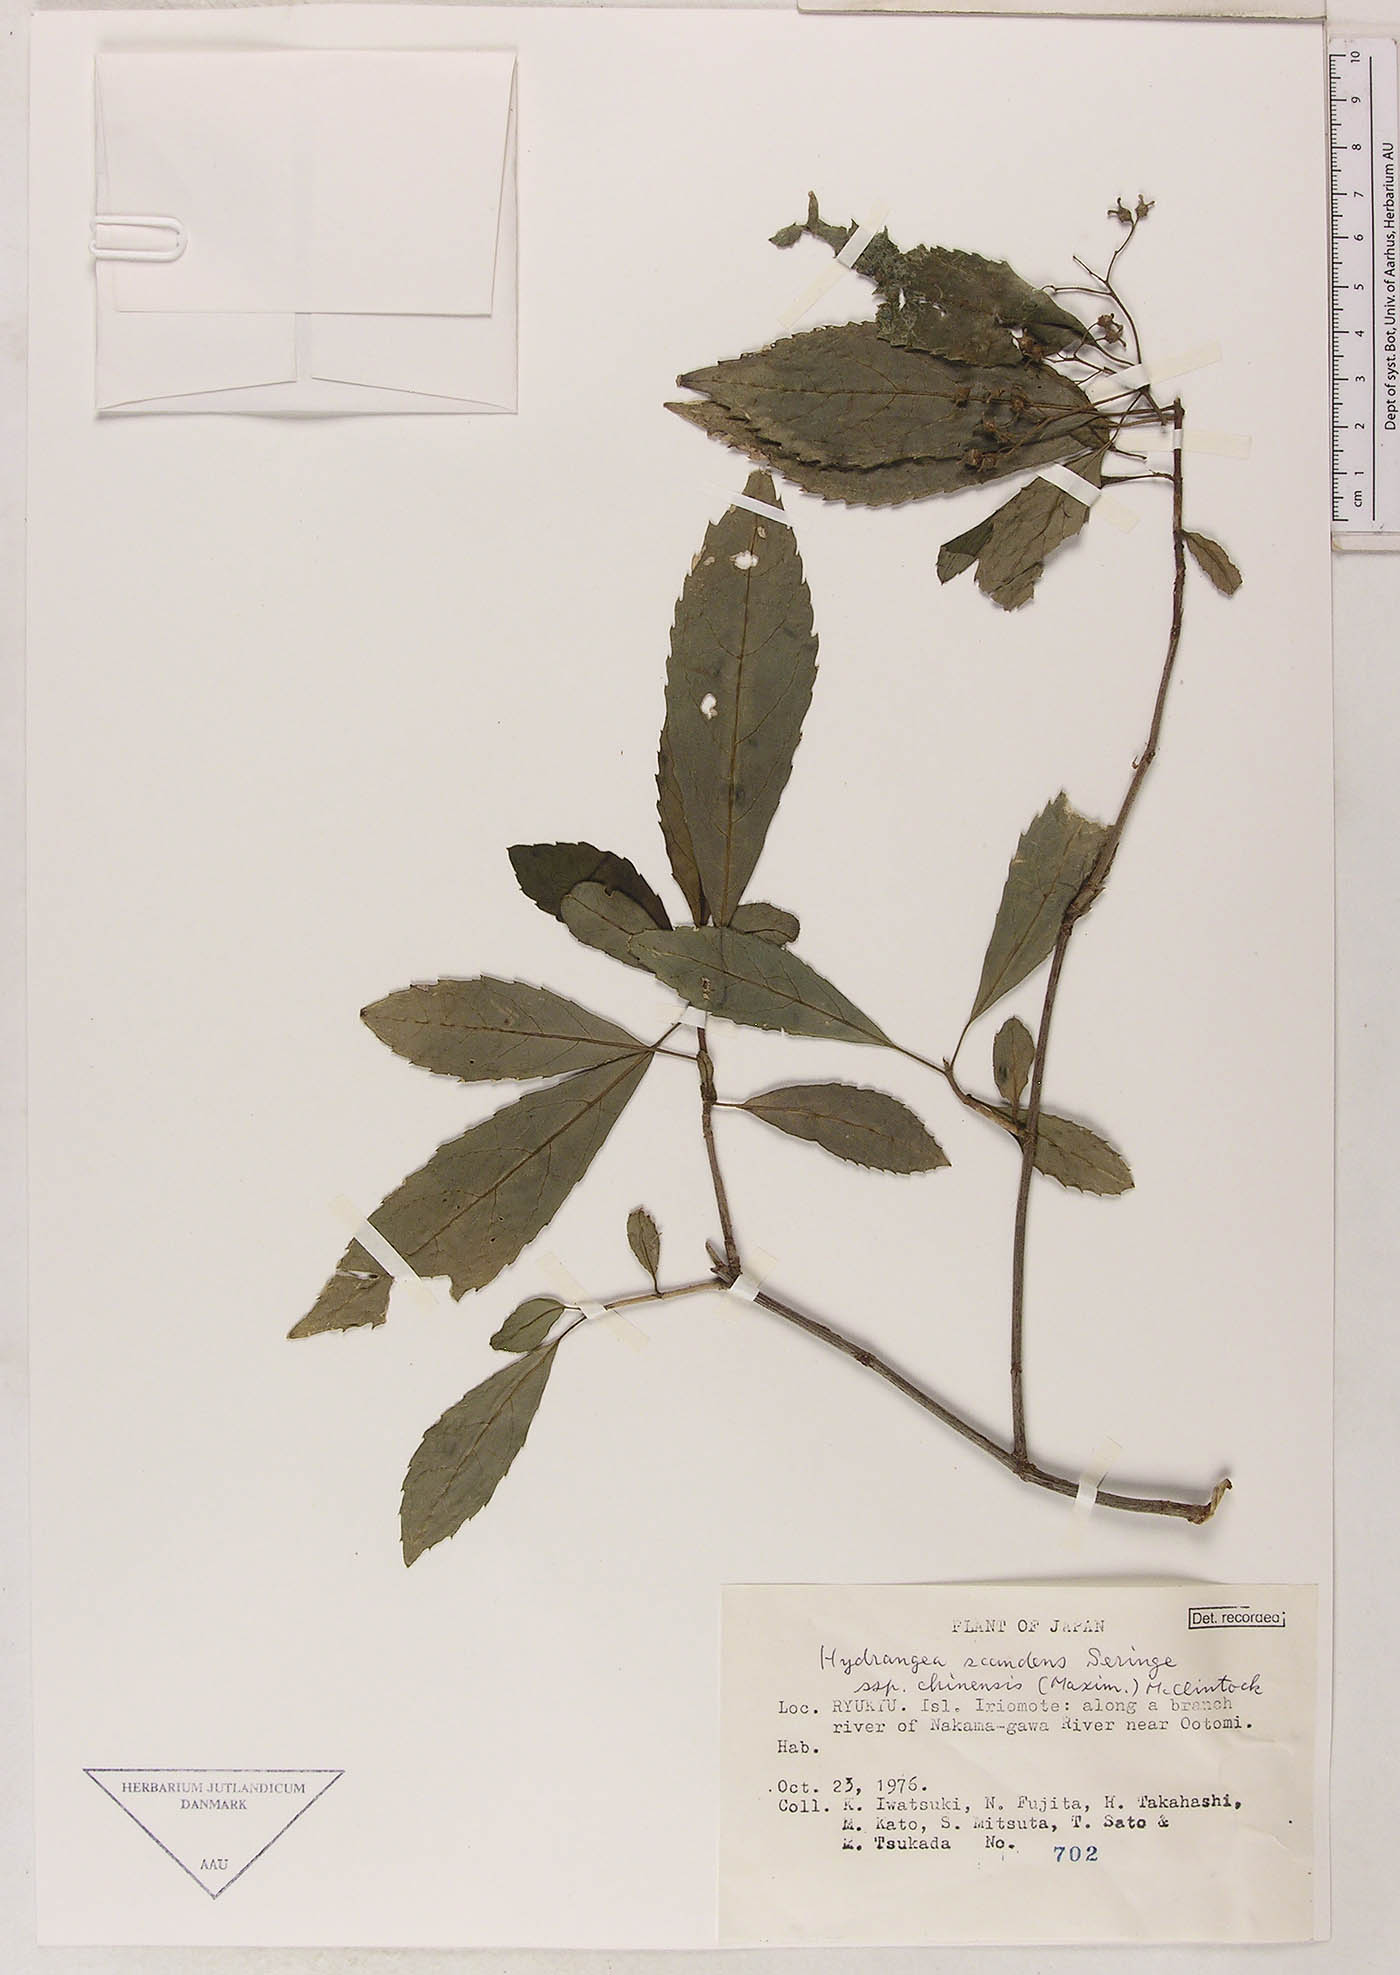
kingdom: Plantae
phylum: Tracheophyta
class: Magnoliopsida
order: Cornales
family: Hydrangeaceae
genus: Hydrangea
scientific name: Hydrangea chinensis
